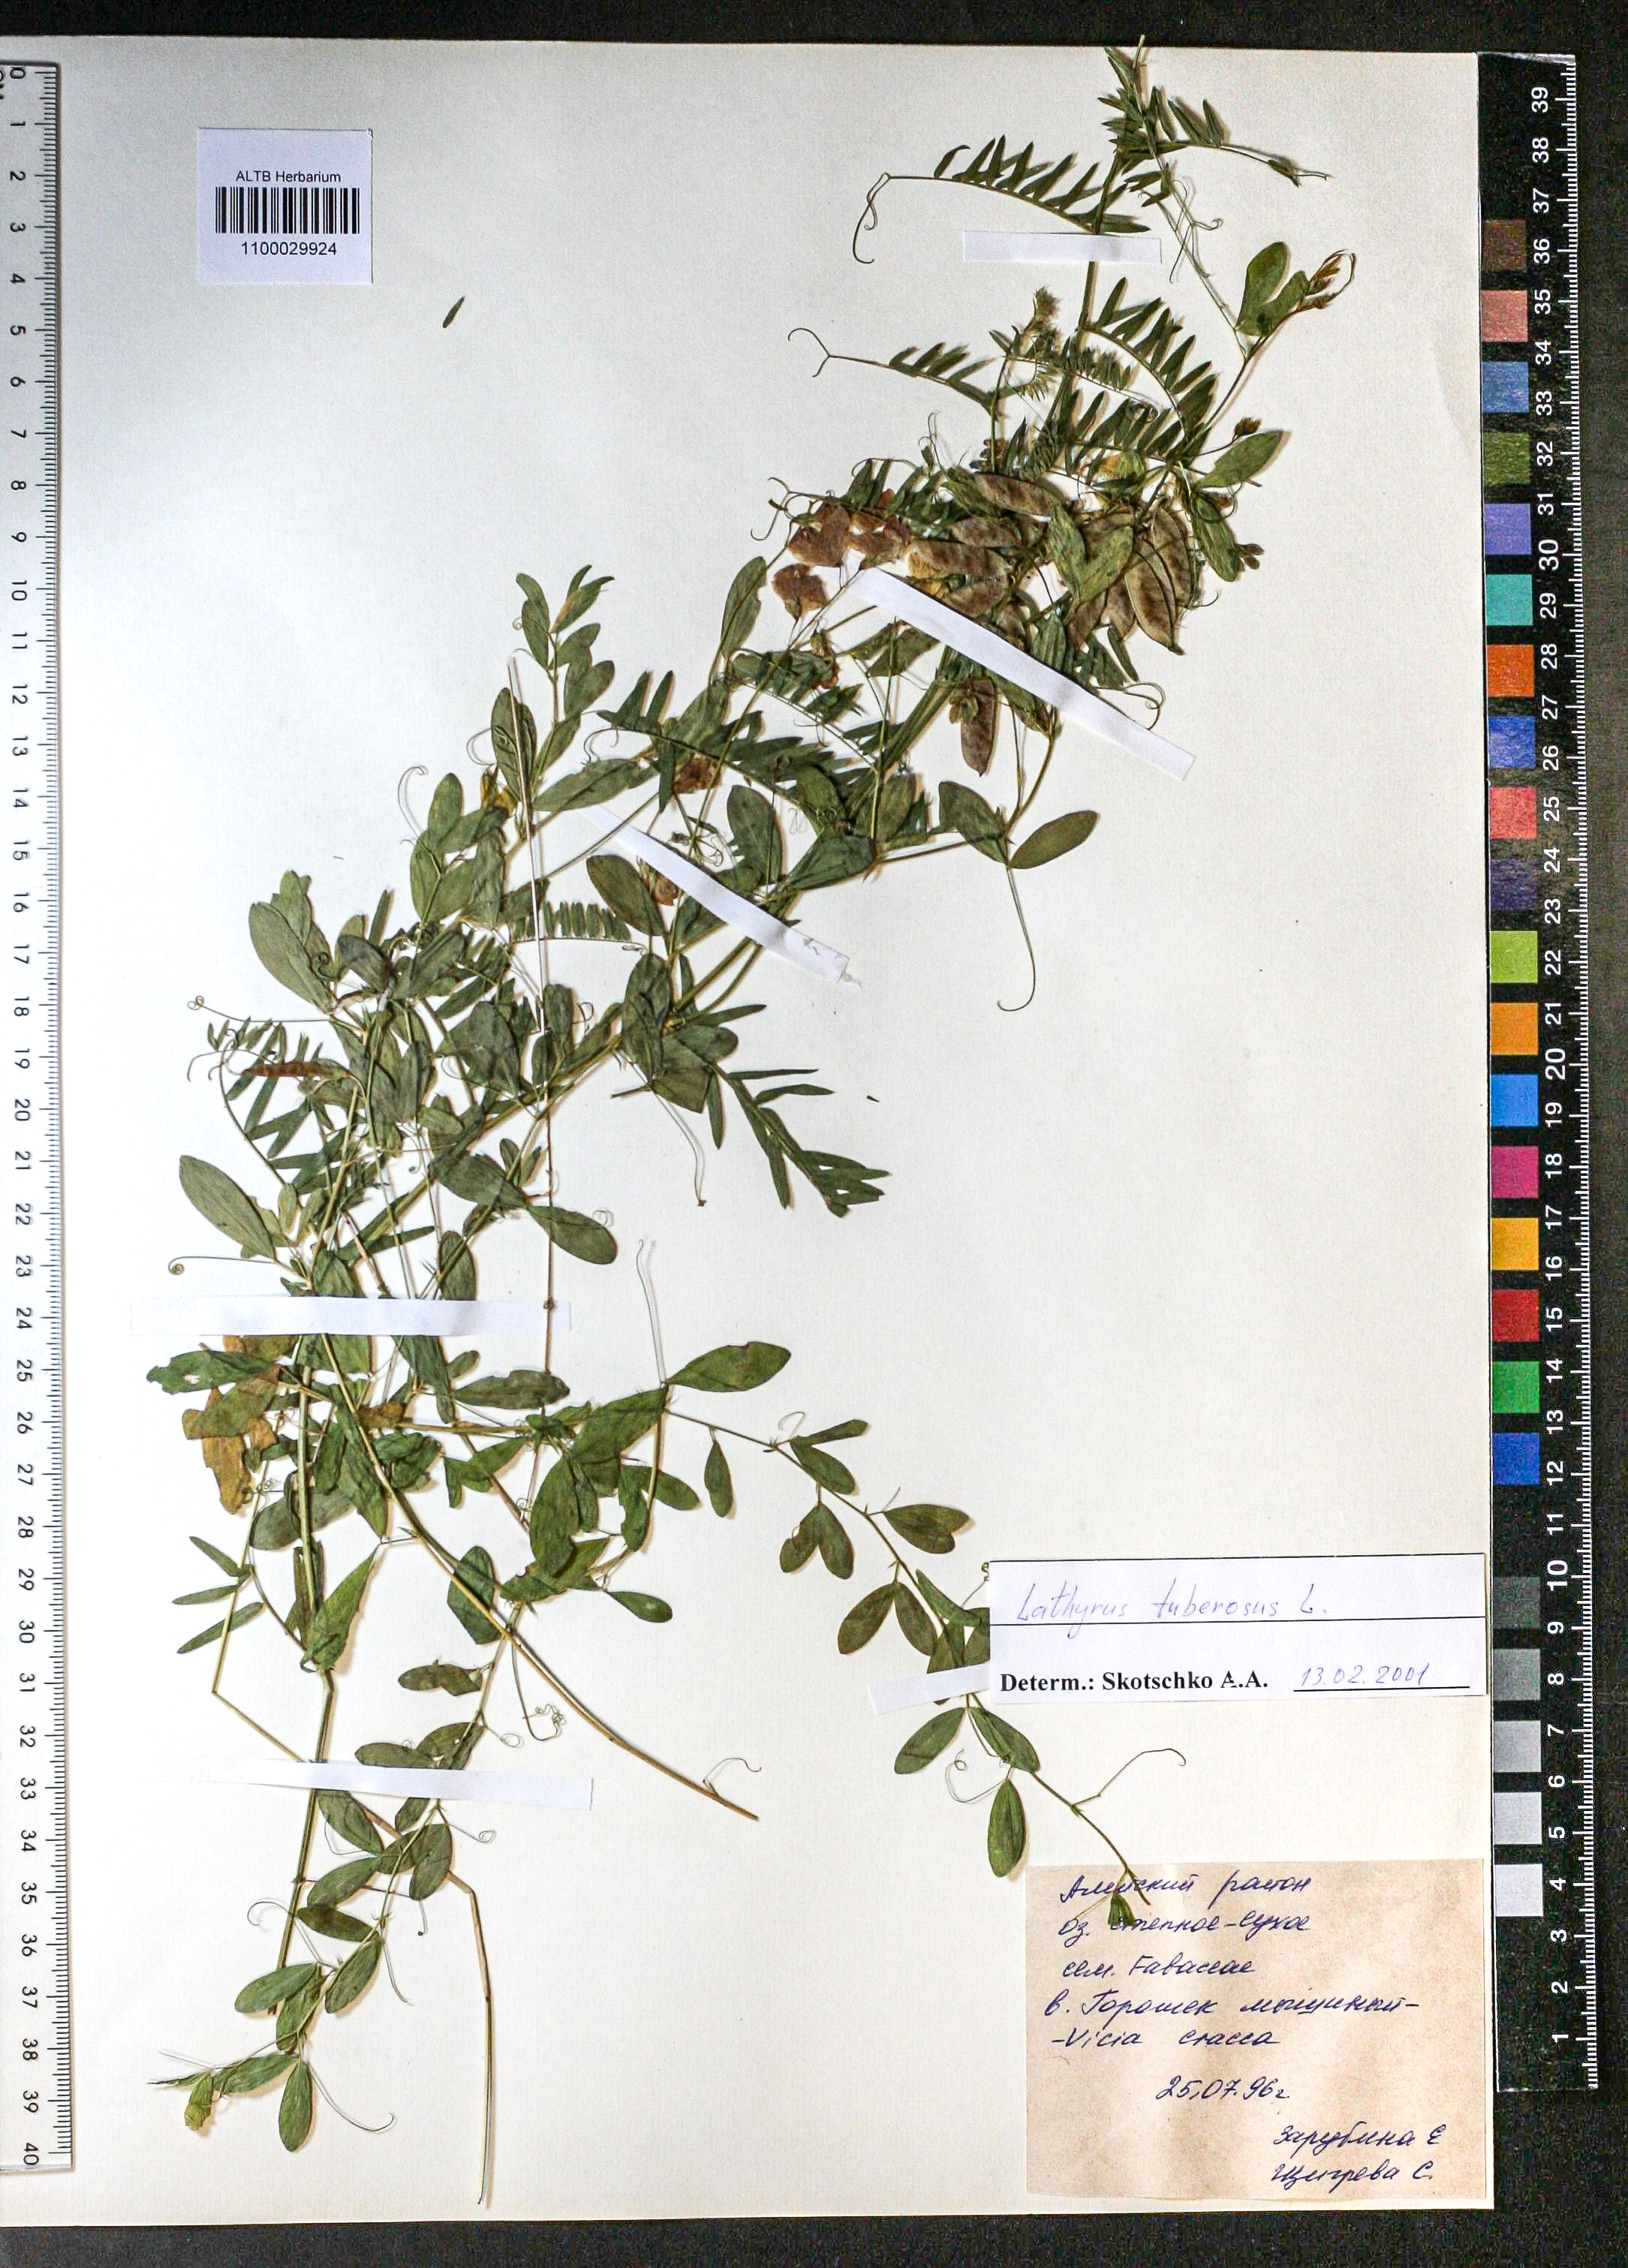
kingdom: Plantae
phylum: Tracheophyta
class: Magnoliopsida
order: Fabales
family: Fabaceae
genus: Trifolium
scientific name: Trifolium lupinaster
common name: Lupine clover
